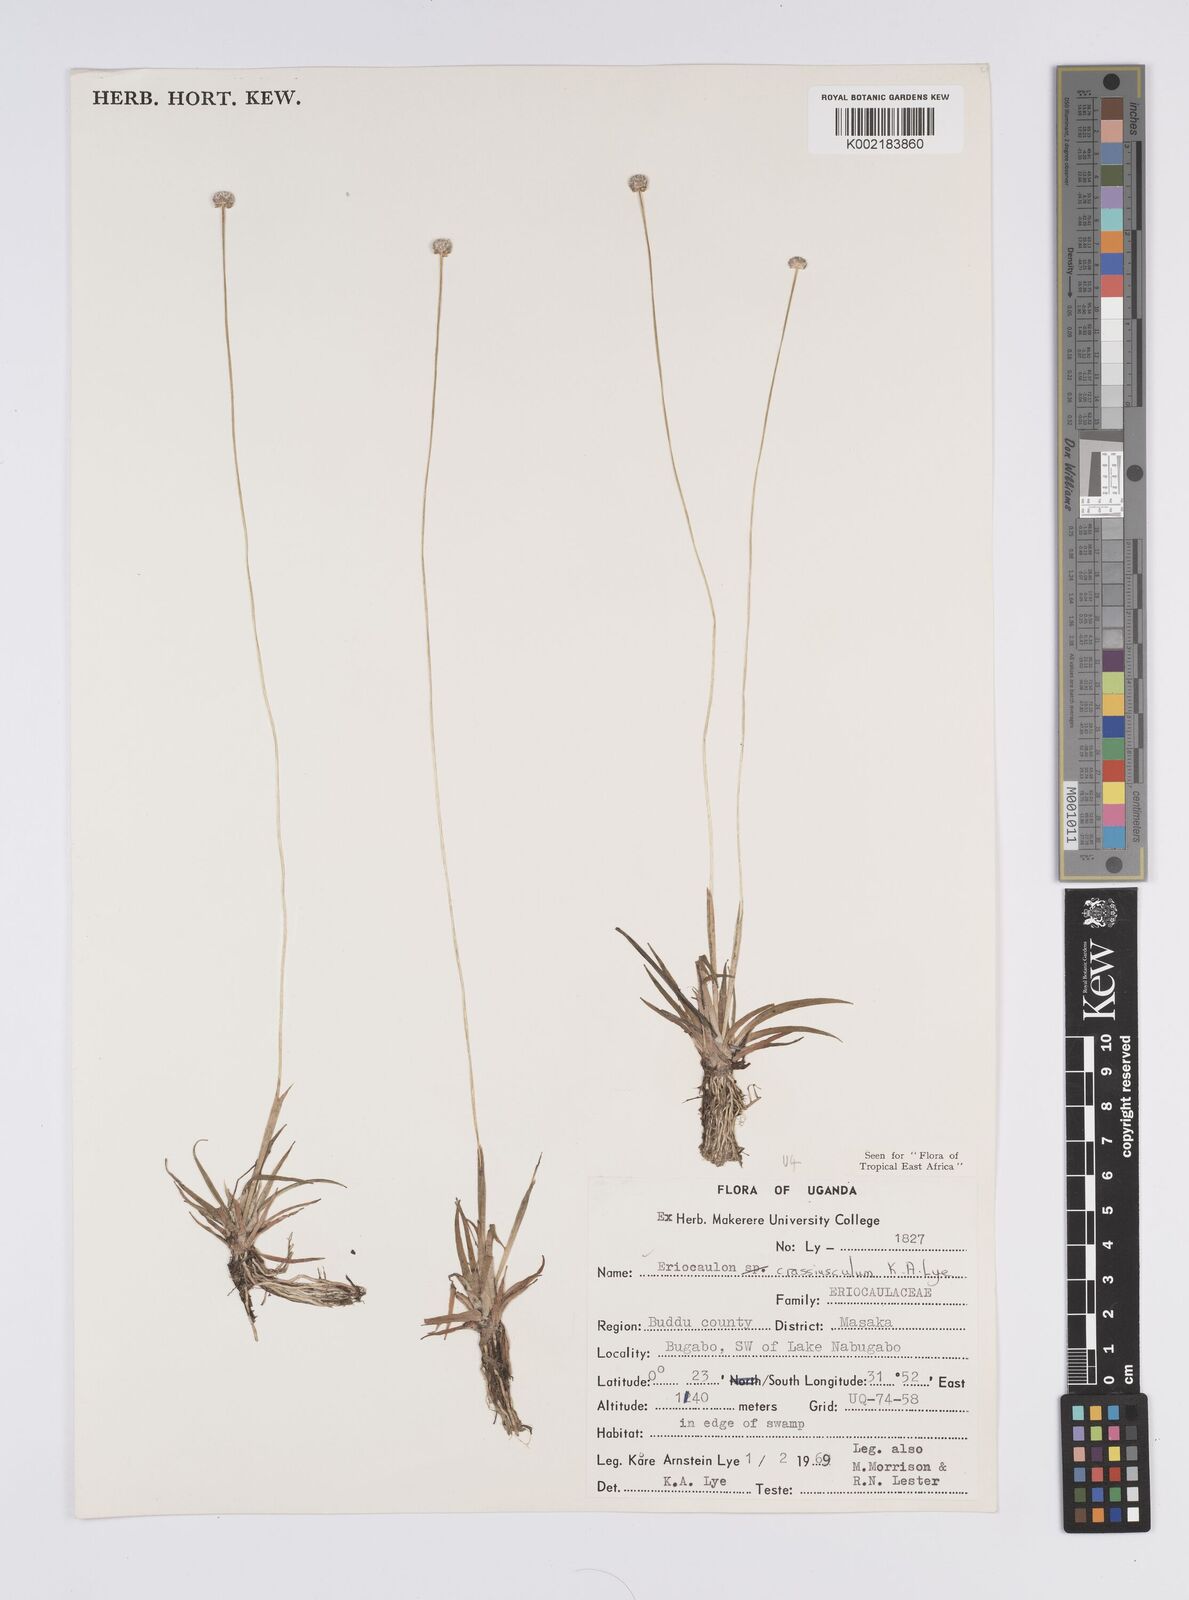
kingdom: Plantae
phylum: Tracheophyta
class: Liliopsida
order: Poales
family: Eriocaulaceae
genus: Eriocaulon
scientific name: Eriocaulon crassiusculum
